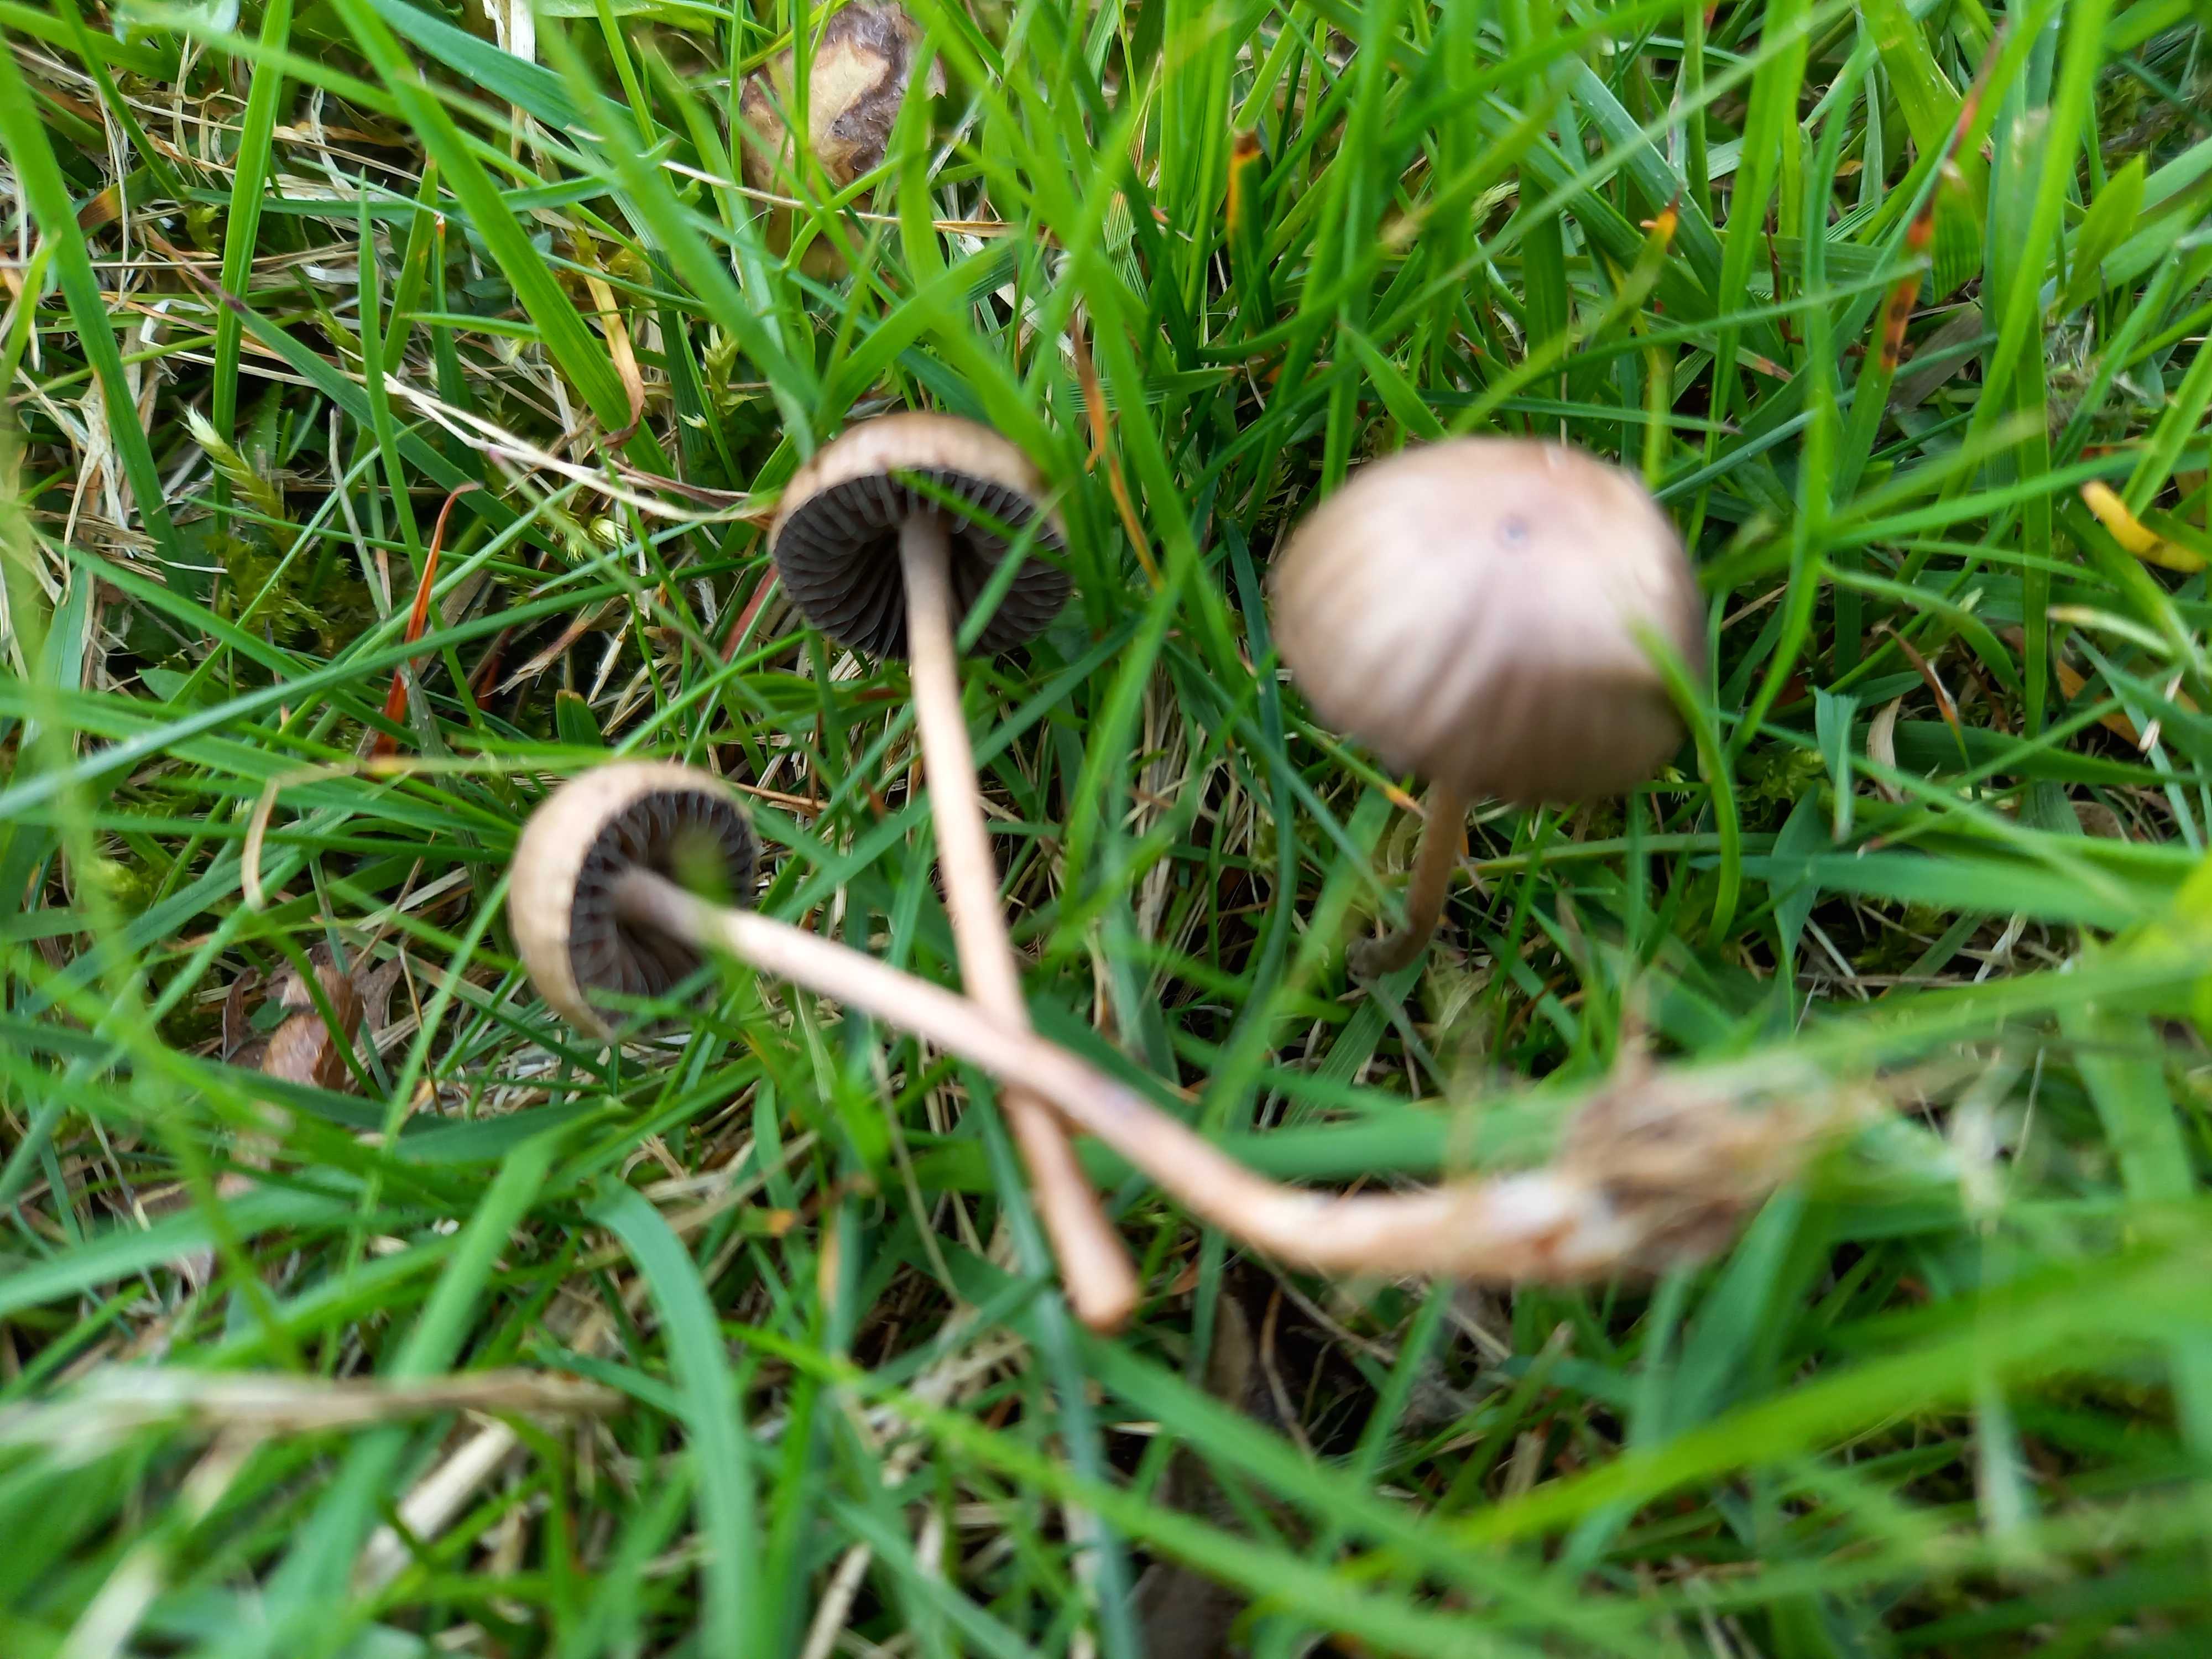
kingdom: Fungi
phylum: Basidiomycota
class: Agaricomycetes
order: Agaricales
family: Bolbitiaceae
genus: Panaeolina
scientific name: Panaeolina foenisecii
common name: høslætsvamp
